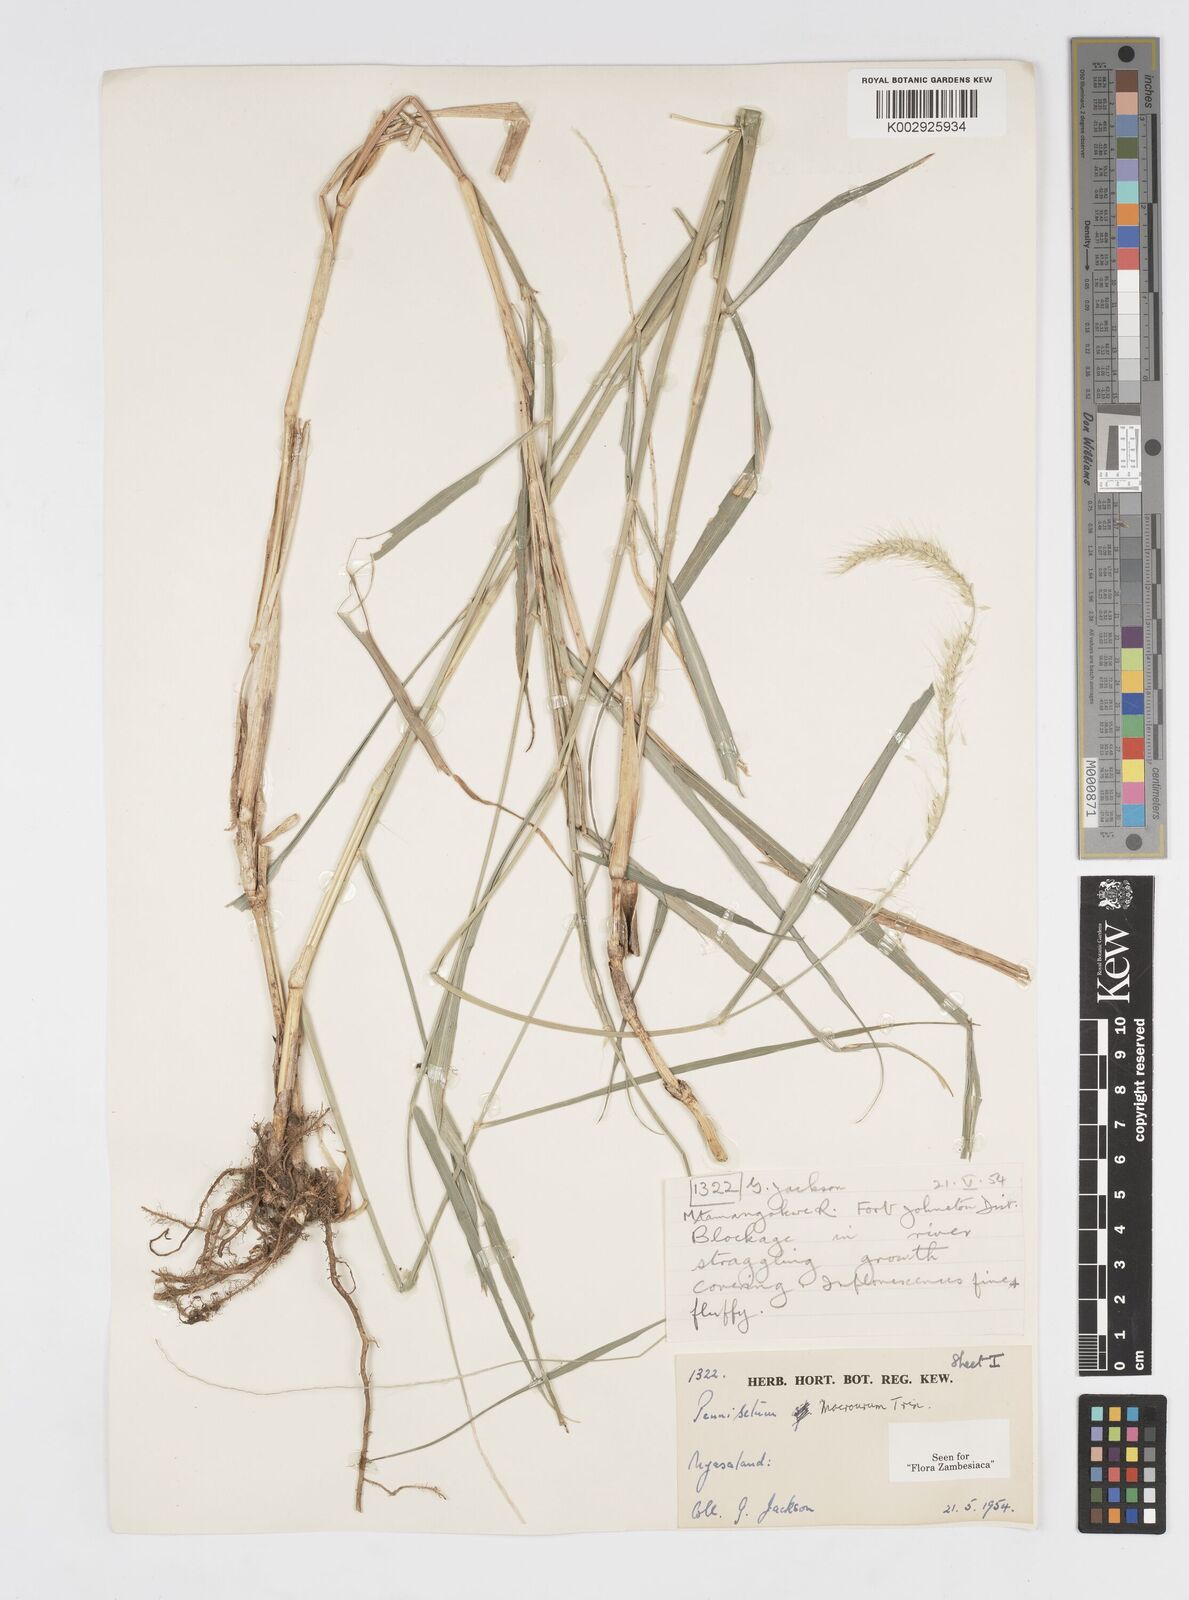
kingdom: Plantae
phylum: Tracheophyta
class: Liliopsida
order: Poales
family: Poaceae
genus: Cenchrus
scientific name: Cenchrus caudatus
